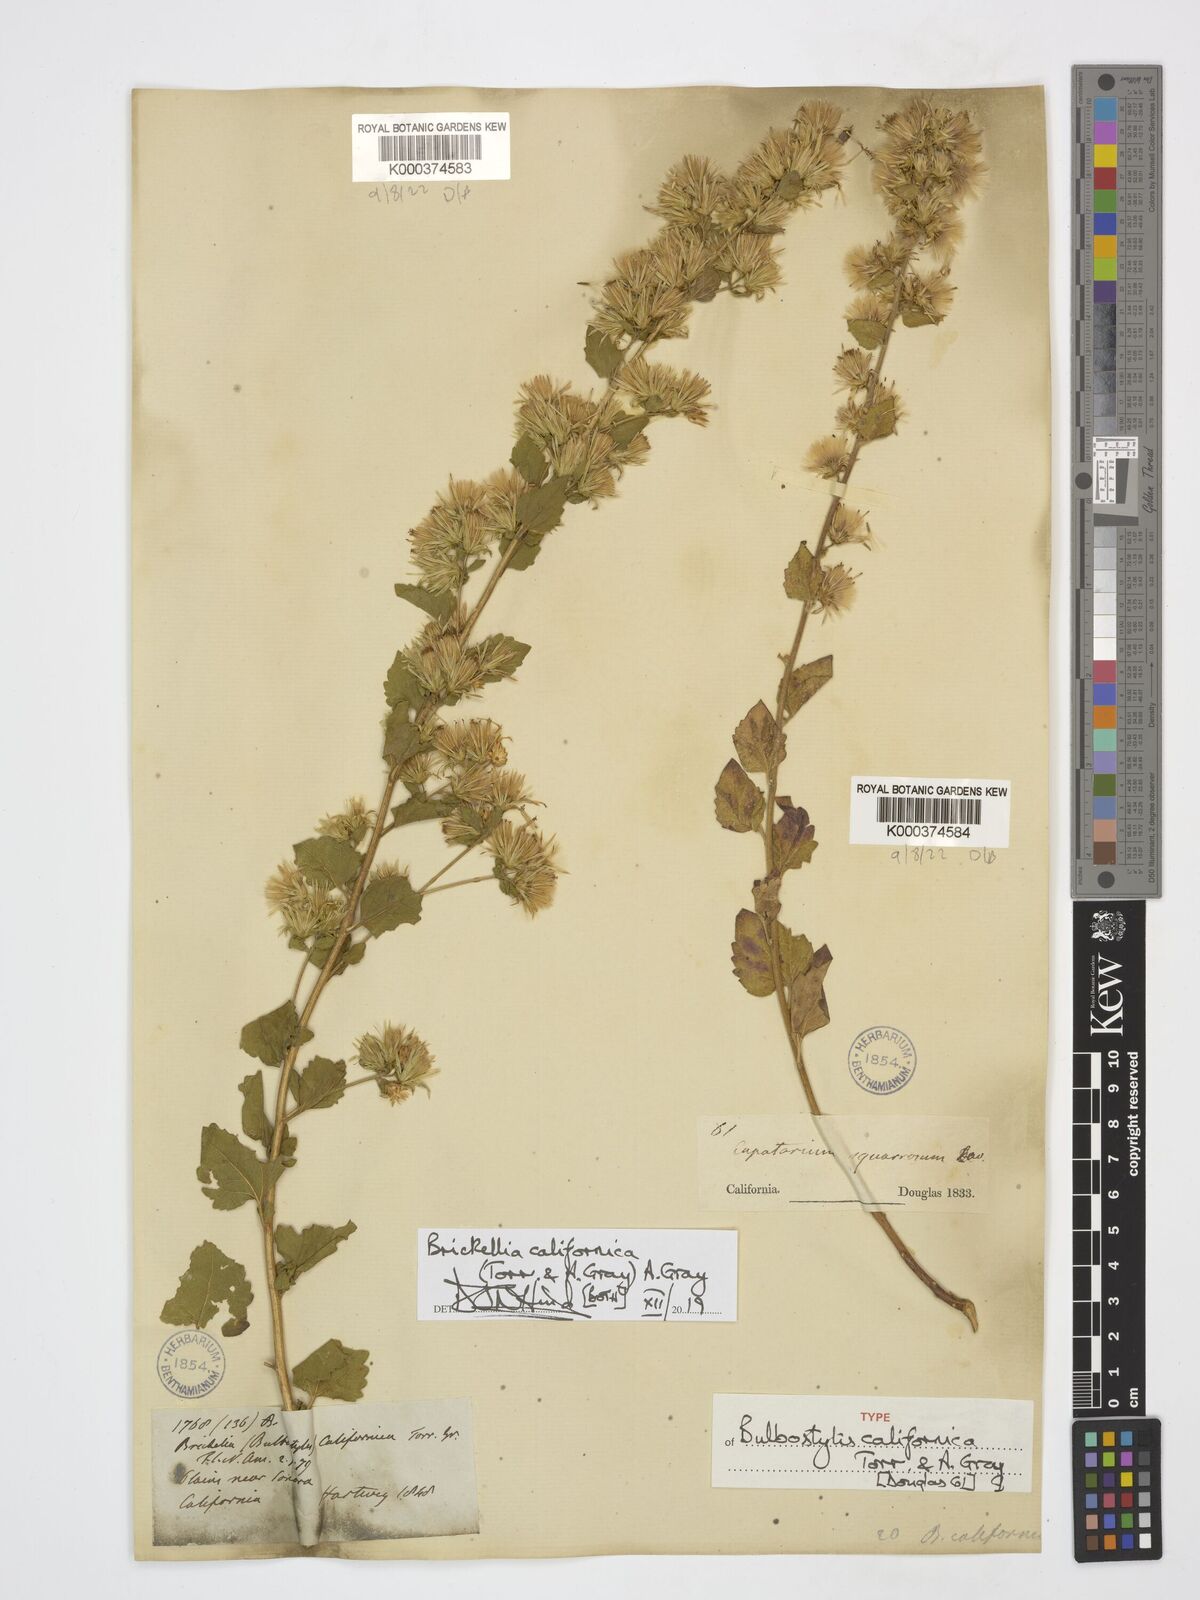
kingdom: Plantae
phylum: Tracheophyta
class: Magnoliopsida
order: Asterales
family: Asteraceae
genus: Brickellia
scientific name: Brickellia californica
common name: California brickellbush
